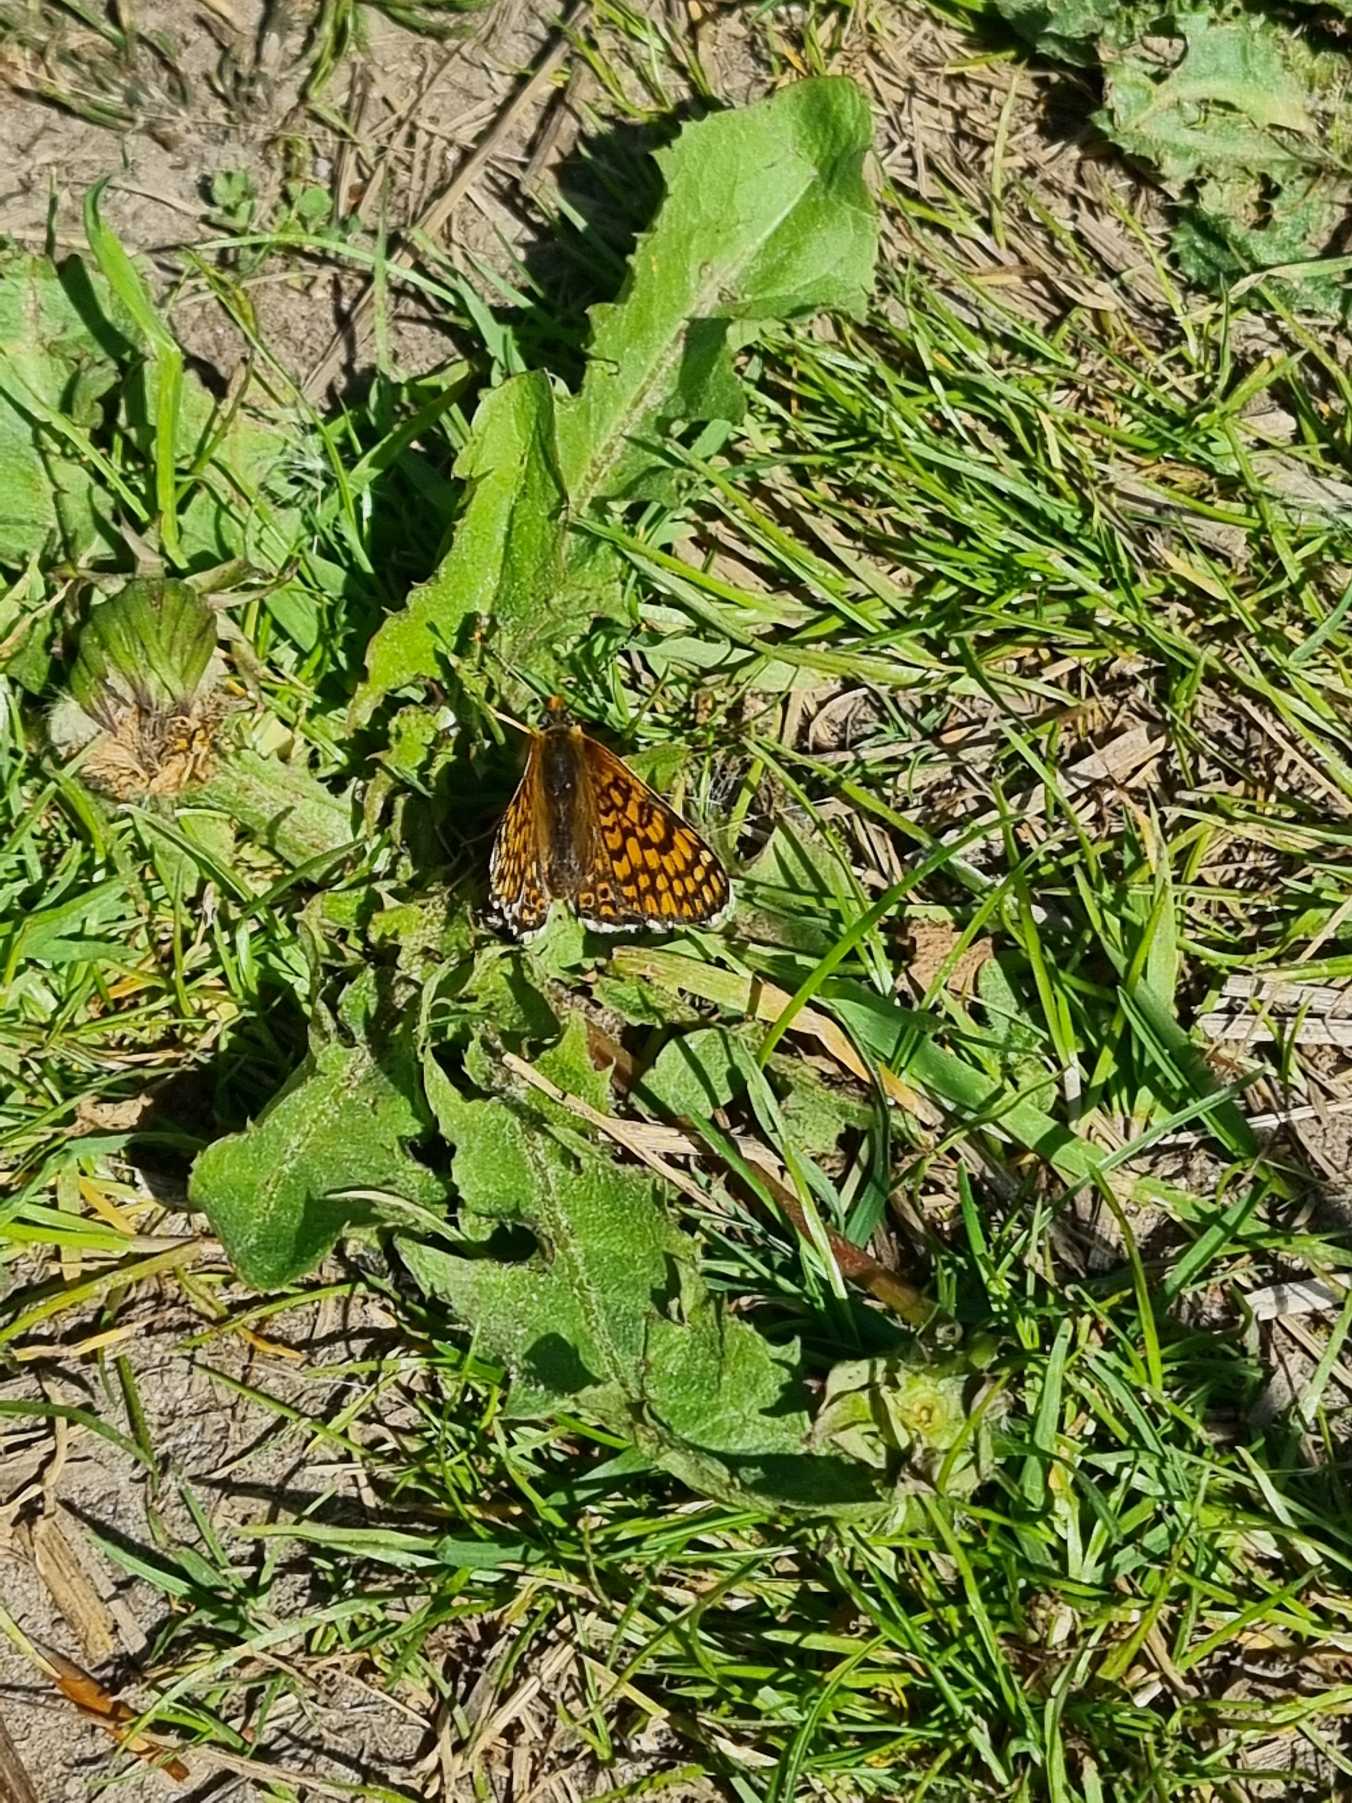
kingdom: Animalia
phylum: Arthropoda
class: Insecta
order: Lepidoptera
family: Nymphalidae
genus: Melitaea
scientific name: Melitaea cinxia
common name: Okkergul pletvinge
